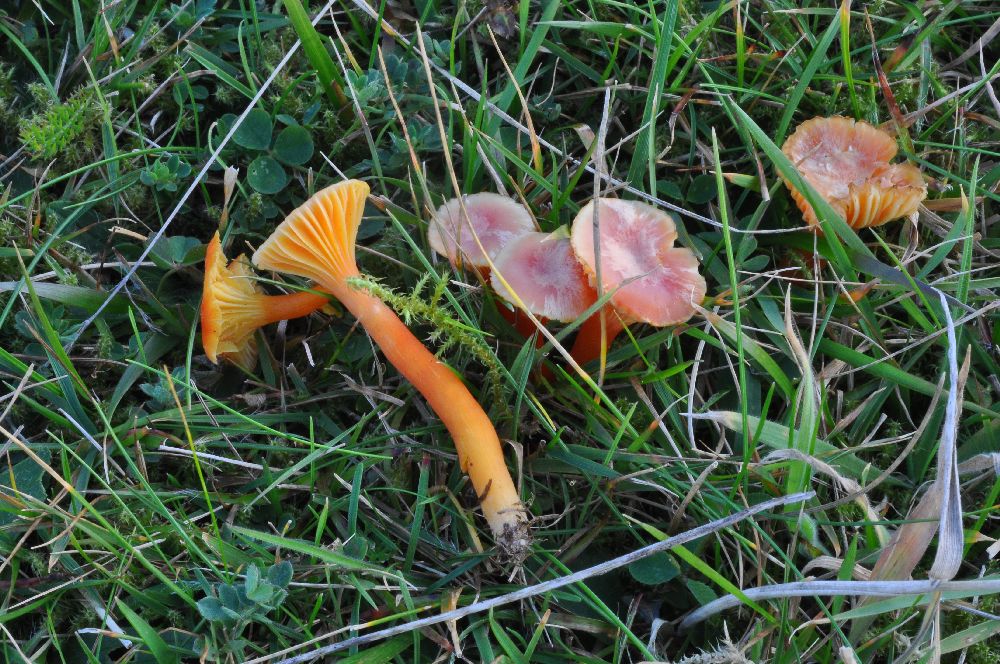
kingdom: Fungi
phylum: Basidiomycota
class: Agaricomycetes
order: Agaricales
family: Hygrophoraceae
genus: Hygrocybe
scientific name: Hygrocybe cantharellus
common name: kantarel-vokshat
